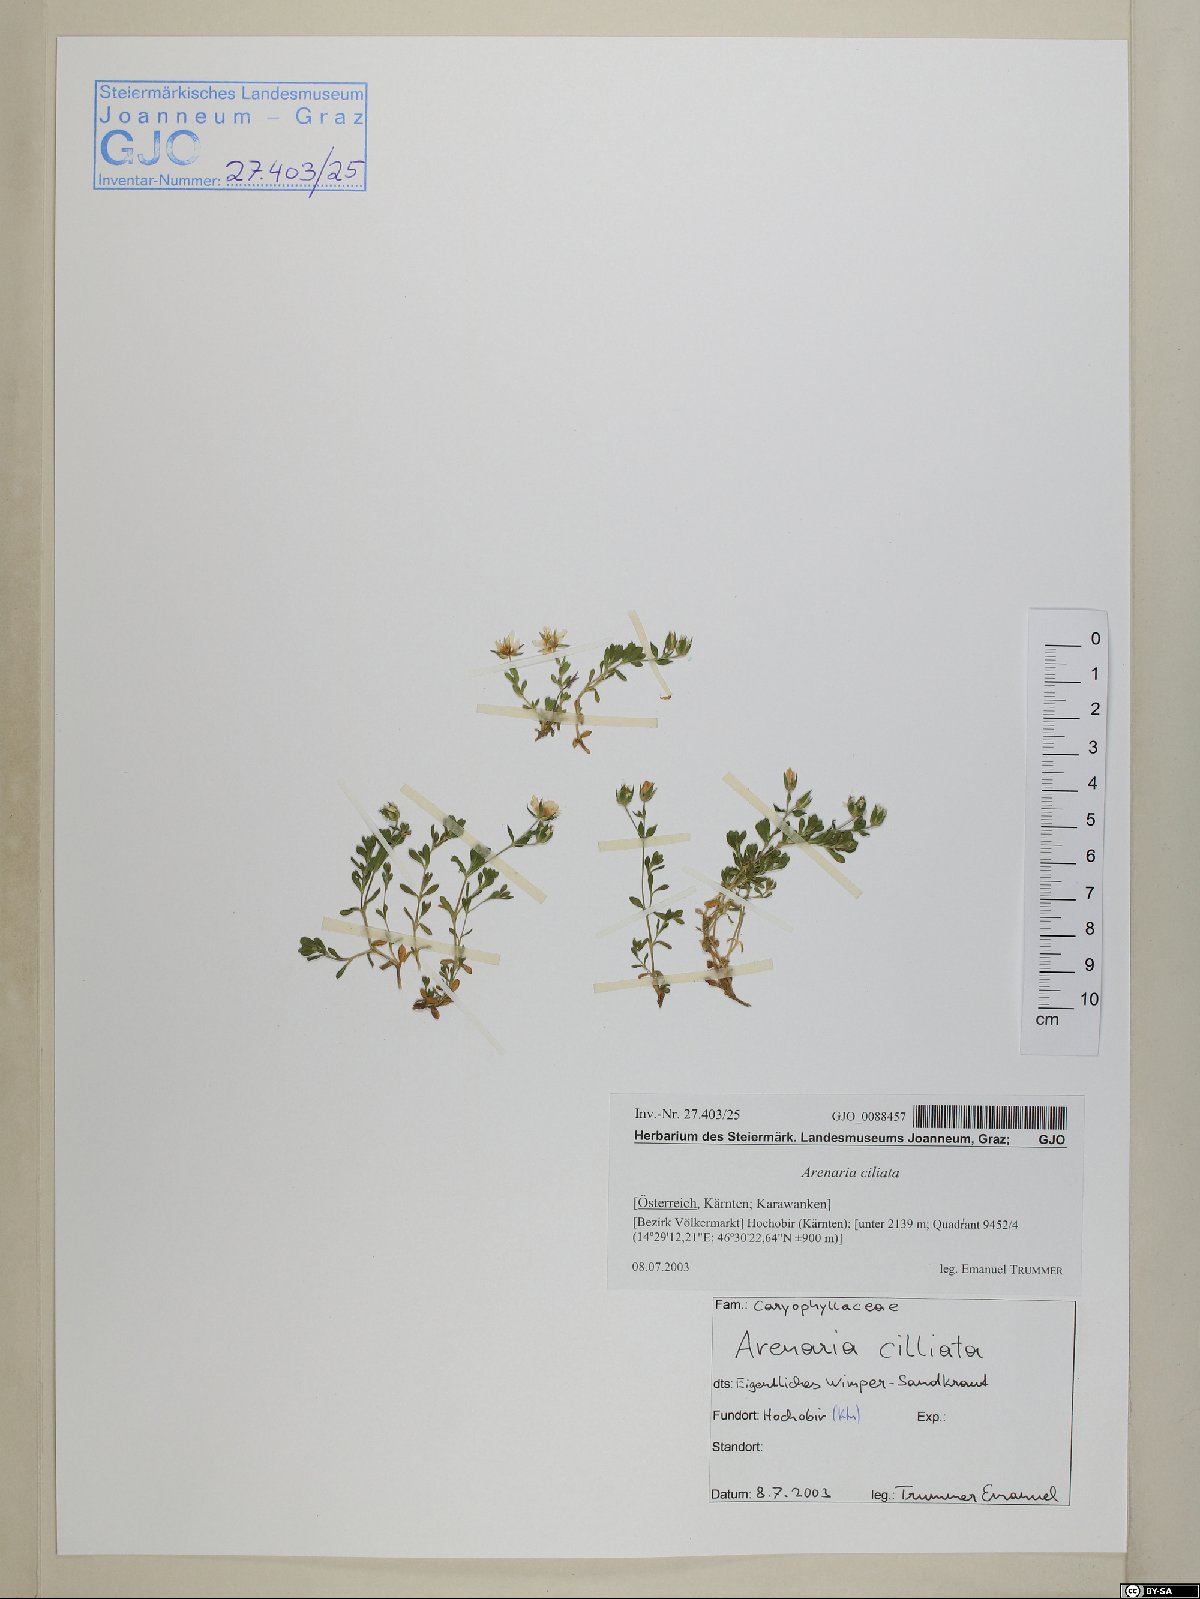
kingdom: Plantae
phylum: Tracheophyta
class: Magnoliopsida
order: Caryophyllales
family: Caryophyllaceae
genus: Arenaria
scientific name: Arenaria ciliata
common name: Fringed sandwort
